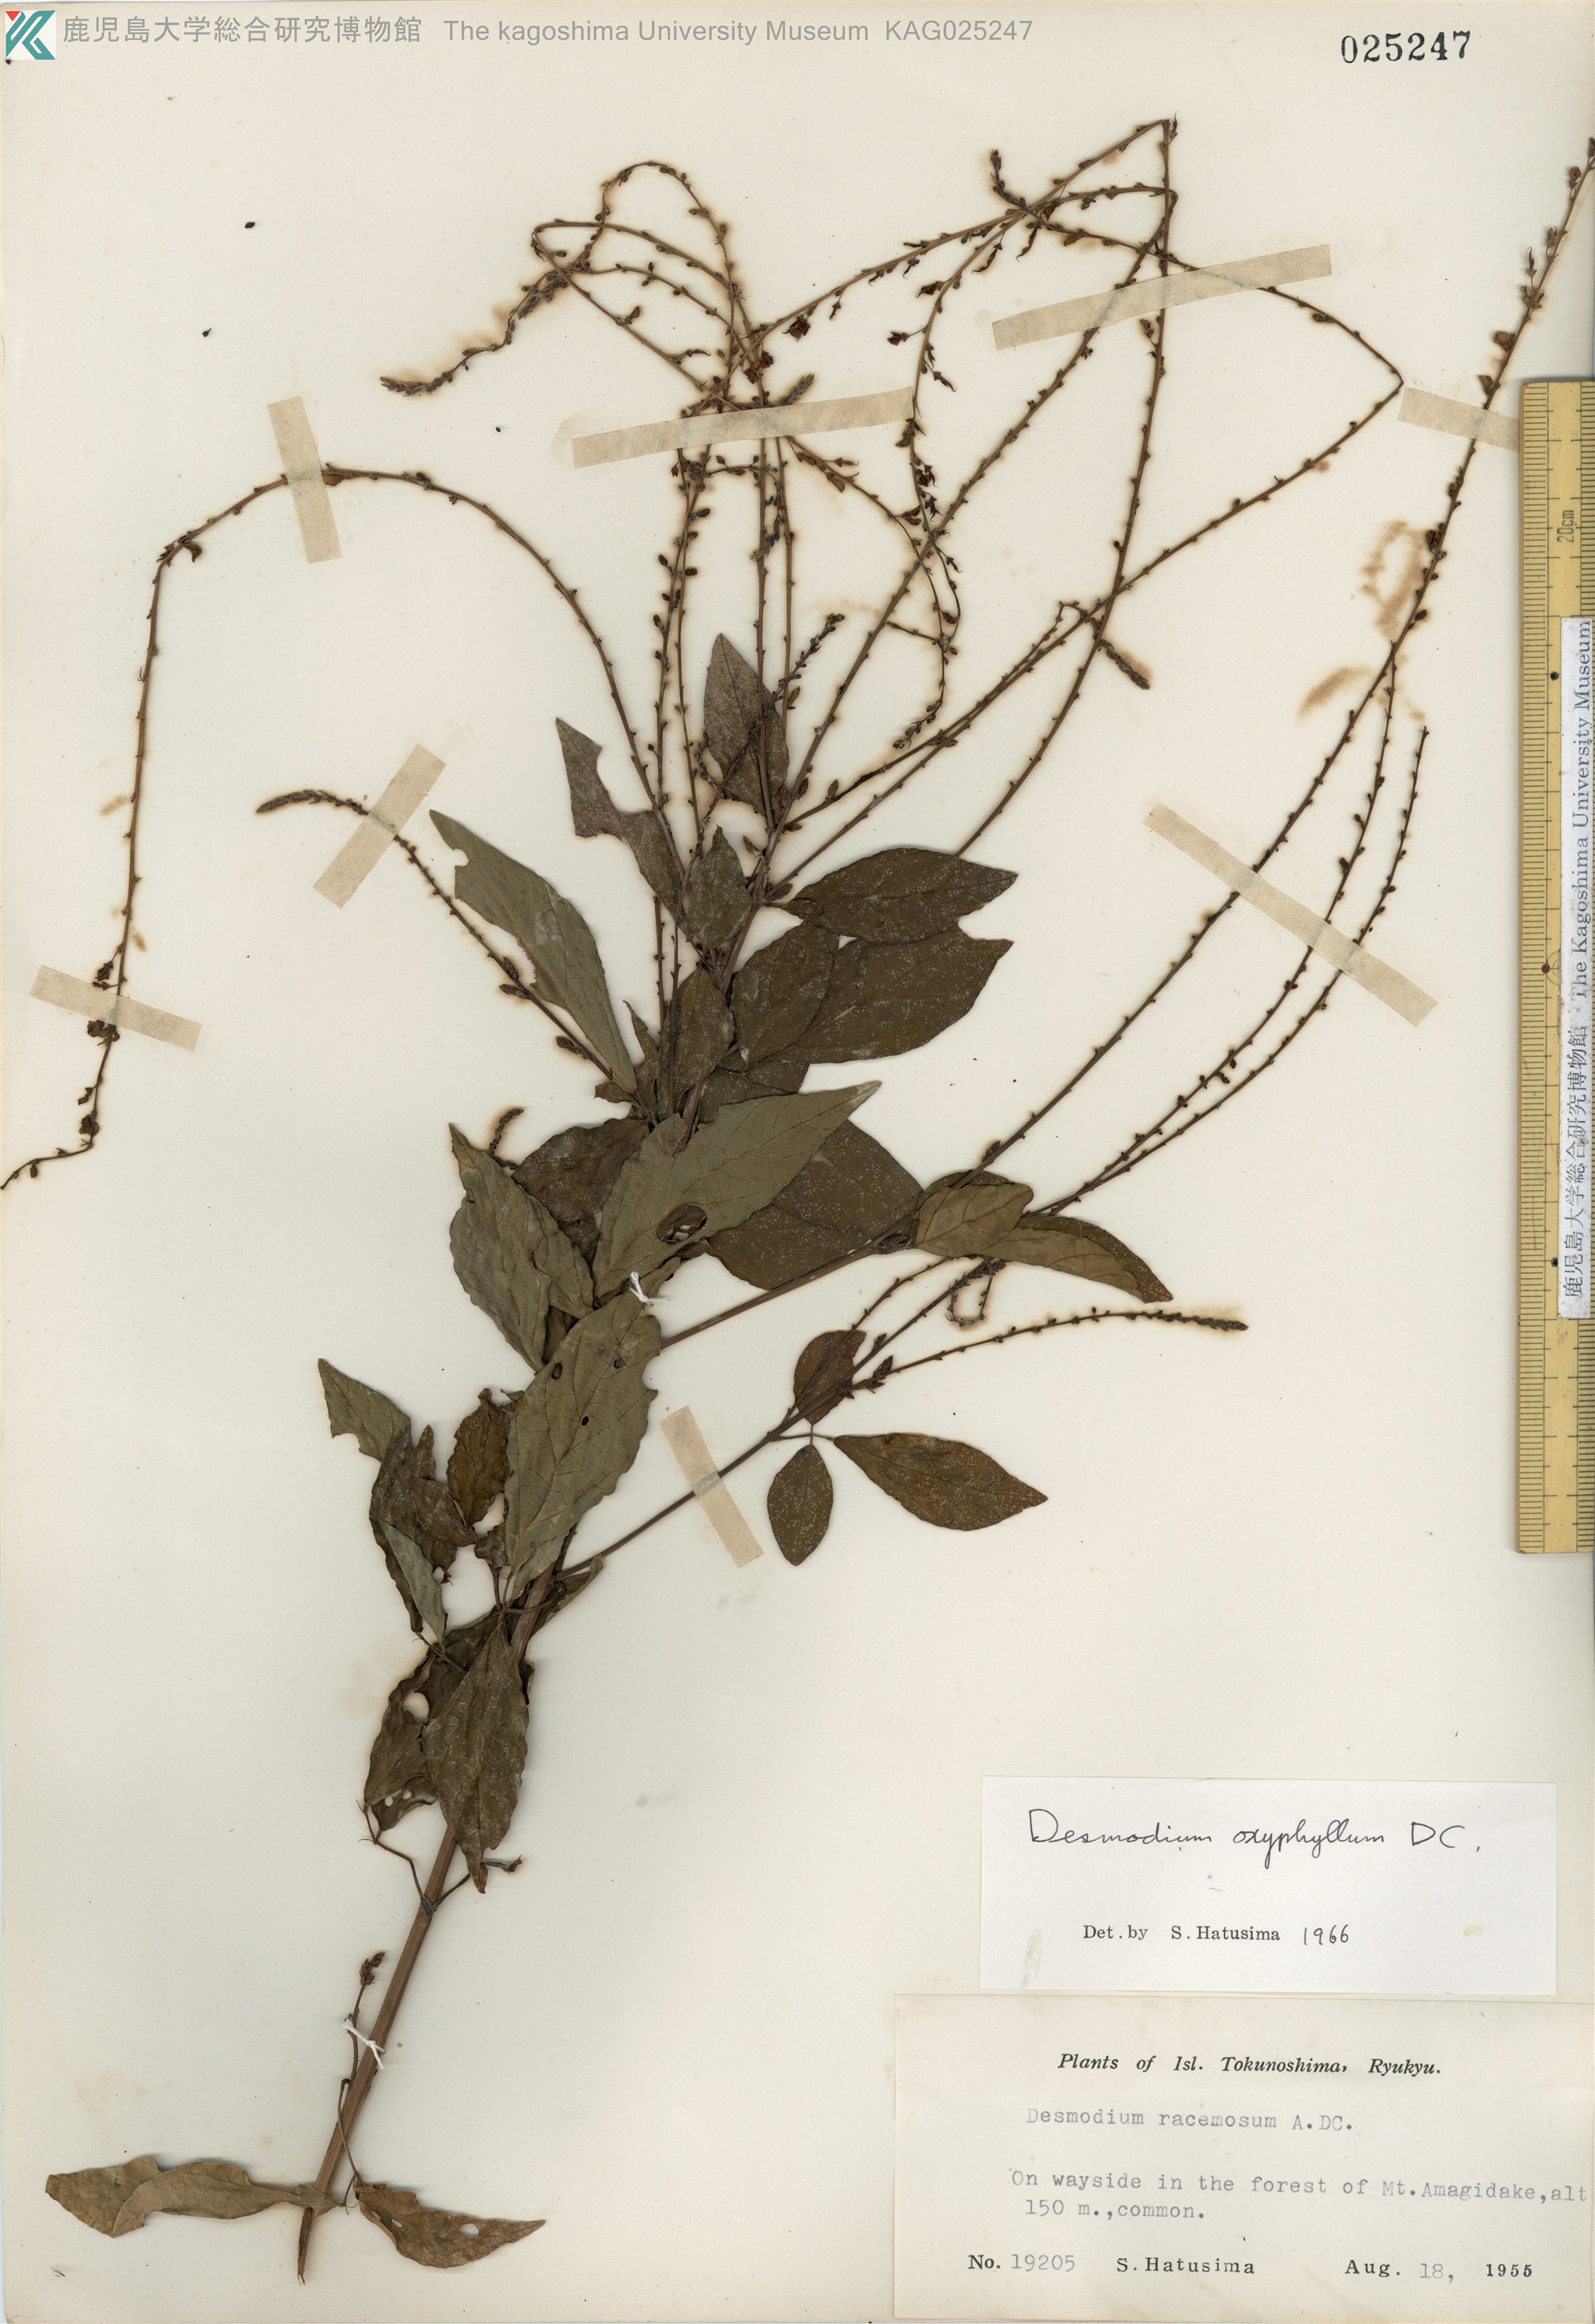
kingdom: Plantae
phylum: Tracheophyta
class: Magnoliopsida
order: Fabales
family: Fabaceae
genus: Hylodesmum
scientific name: Hylodesmum podocarpum
